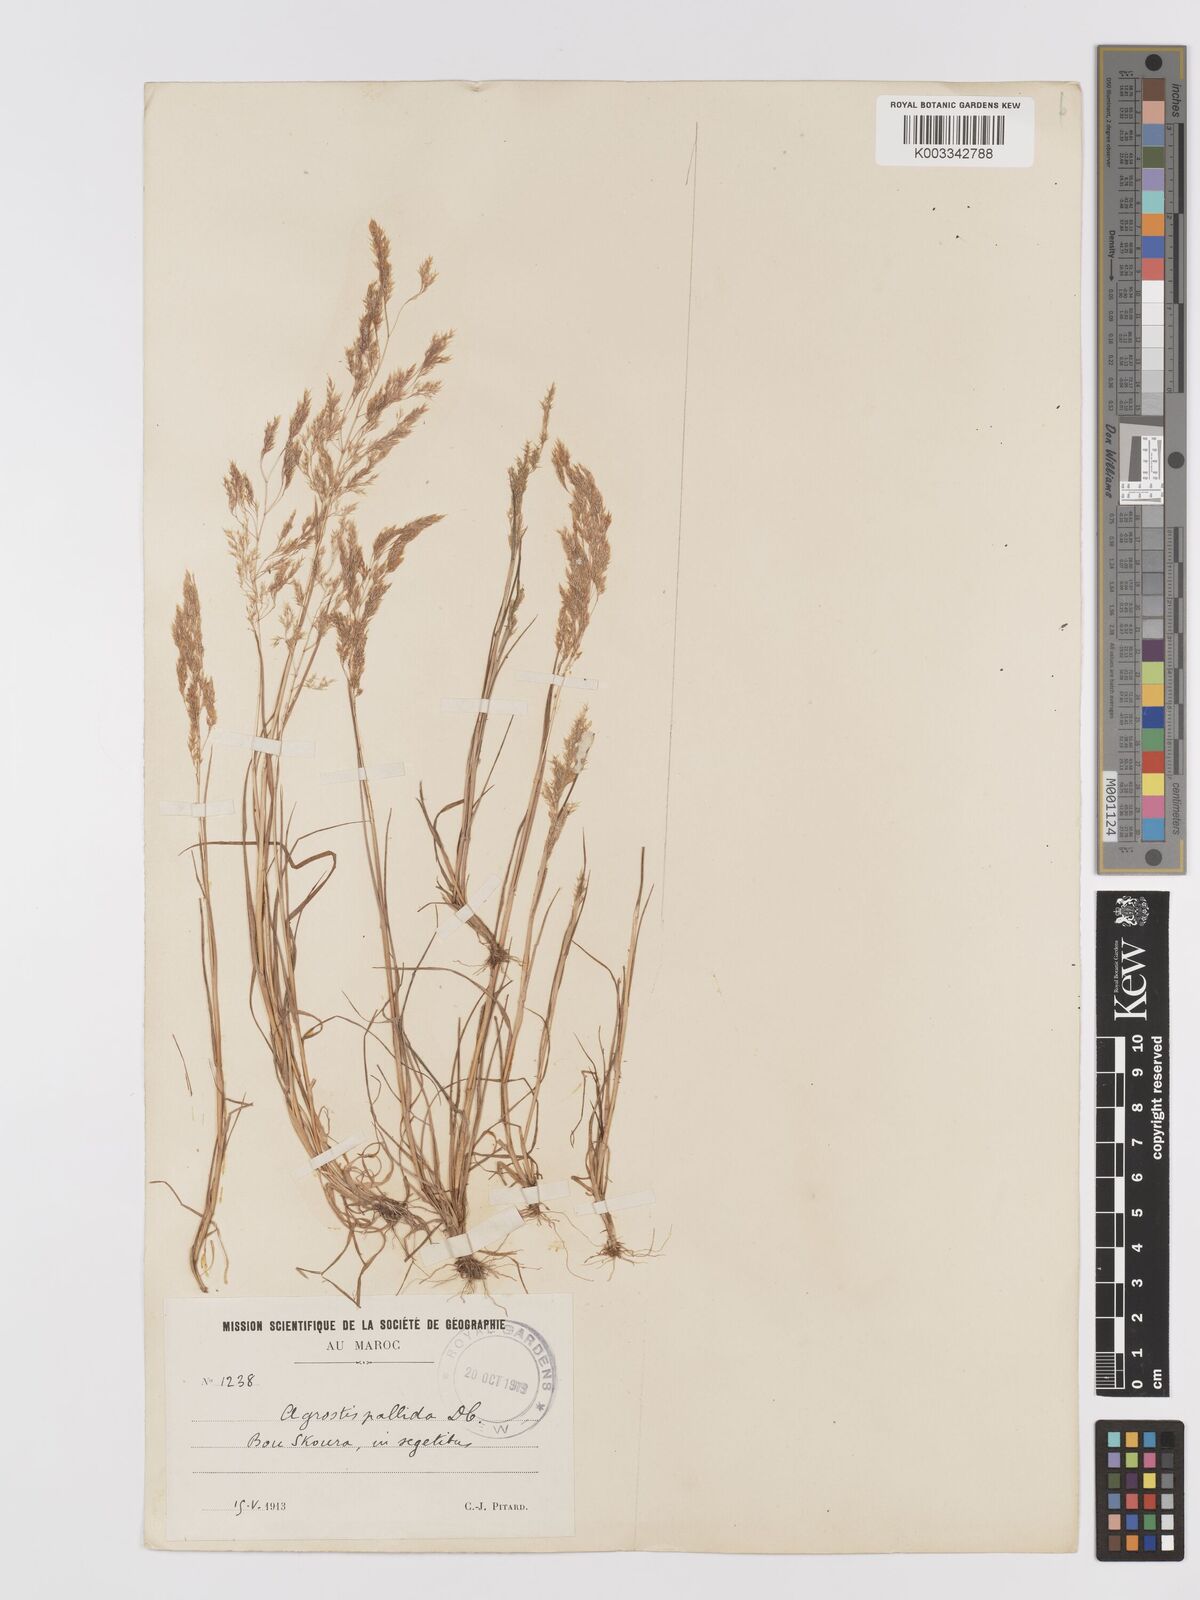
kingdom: Plantae
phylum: Tracheophyta
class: Liliopsida
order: Poales
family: Poaceae
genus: Agrostis
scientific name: Agrostis pourretii
